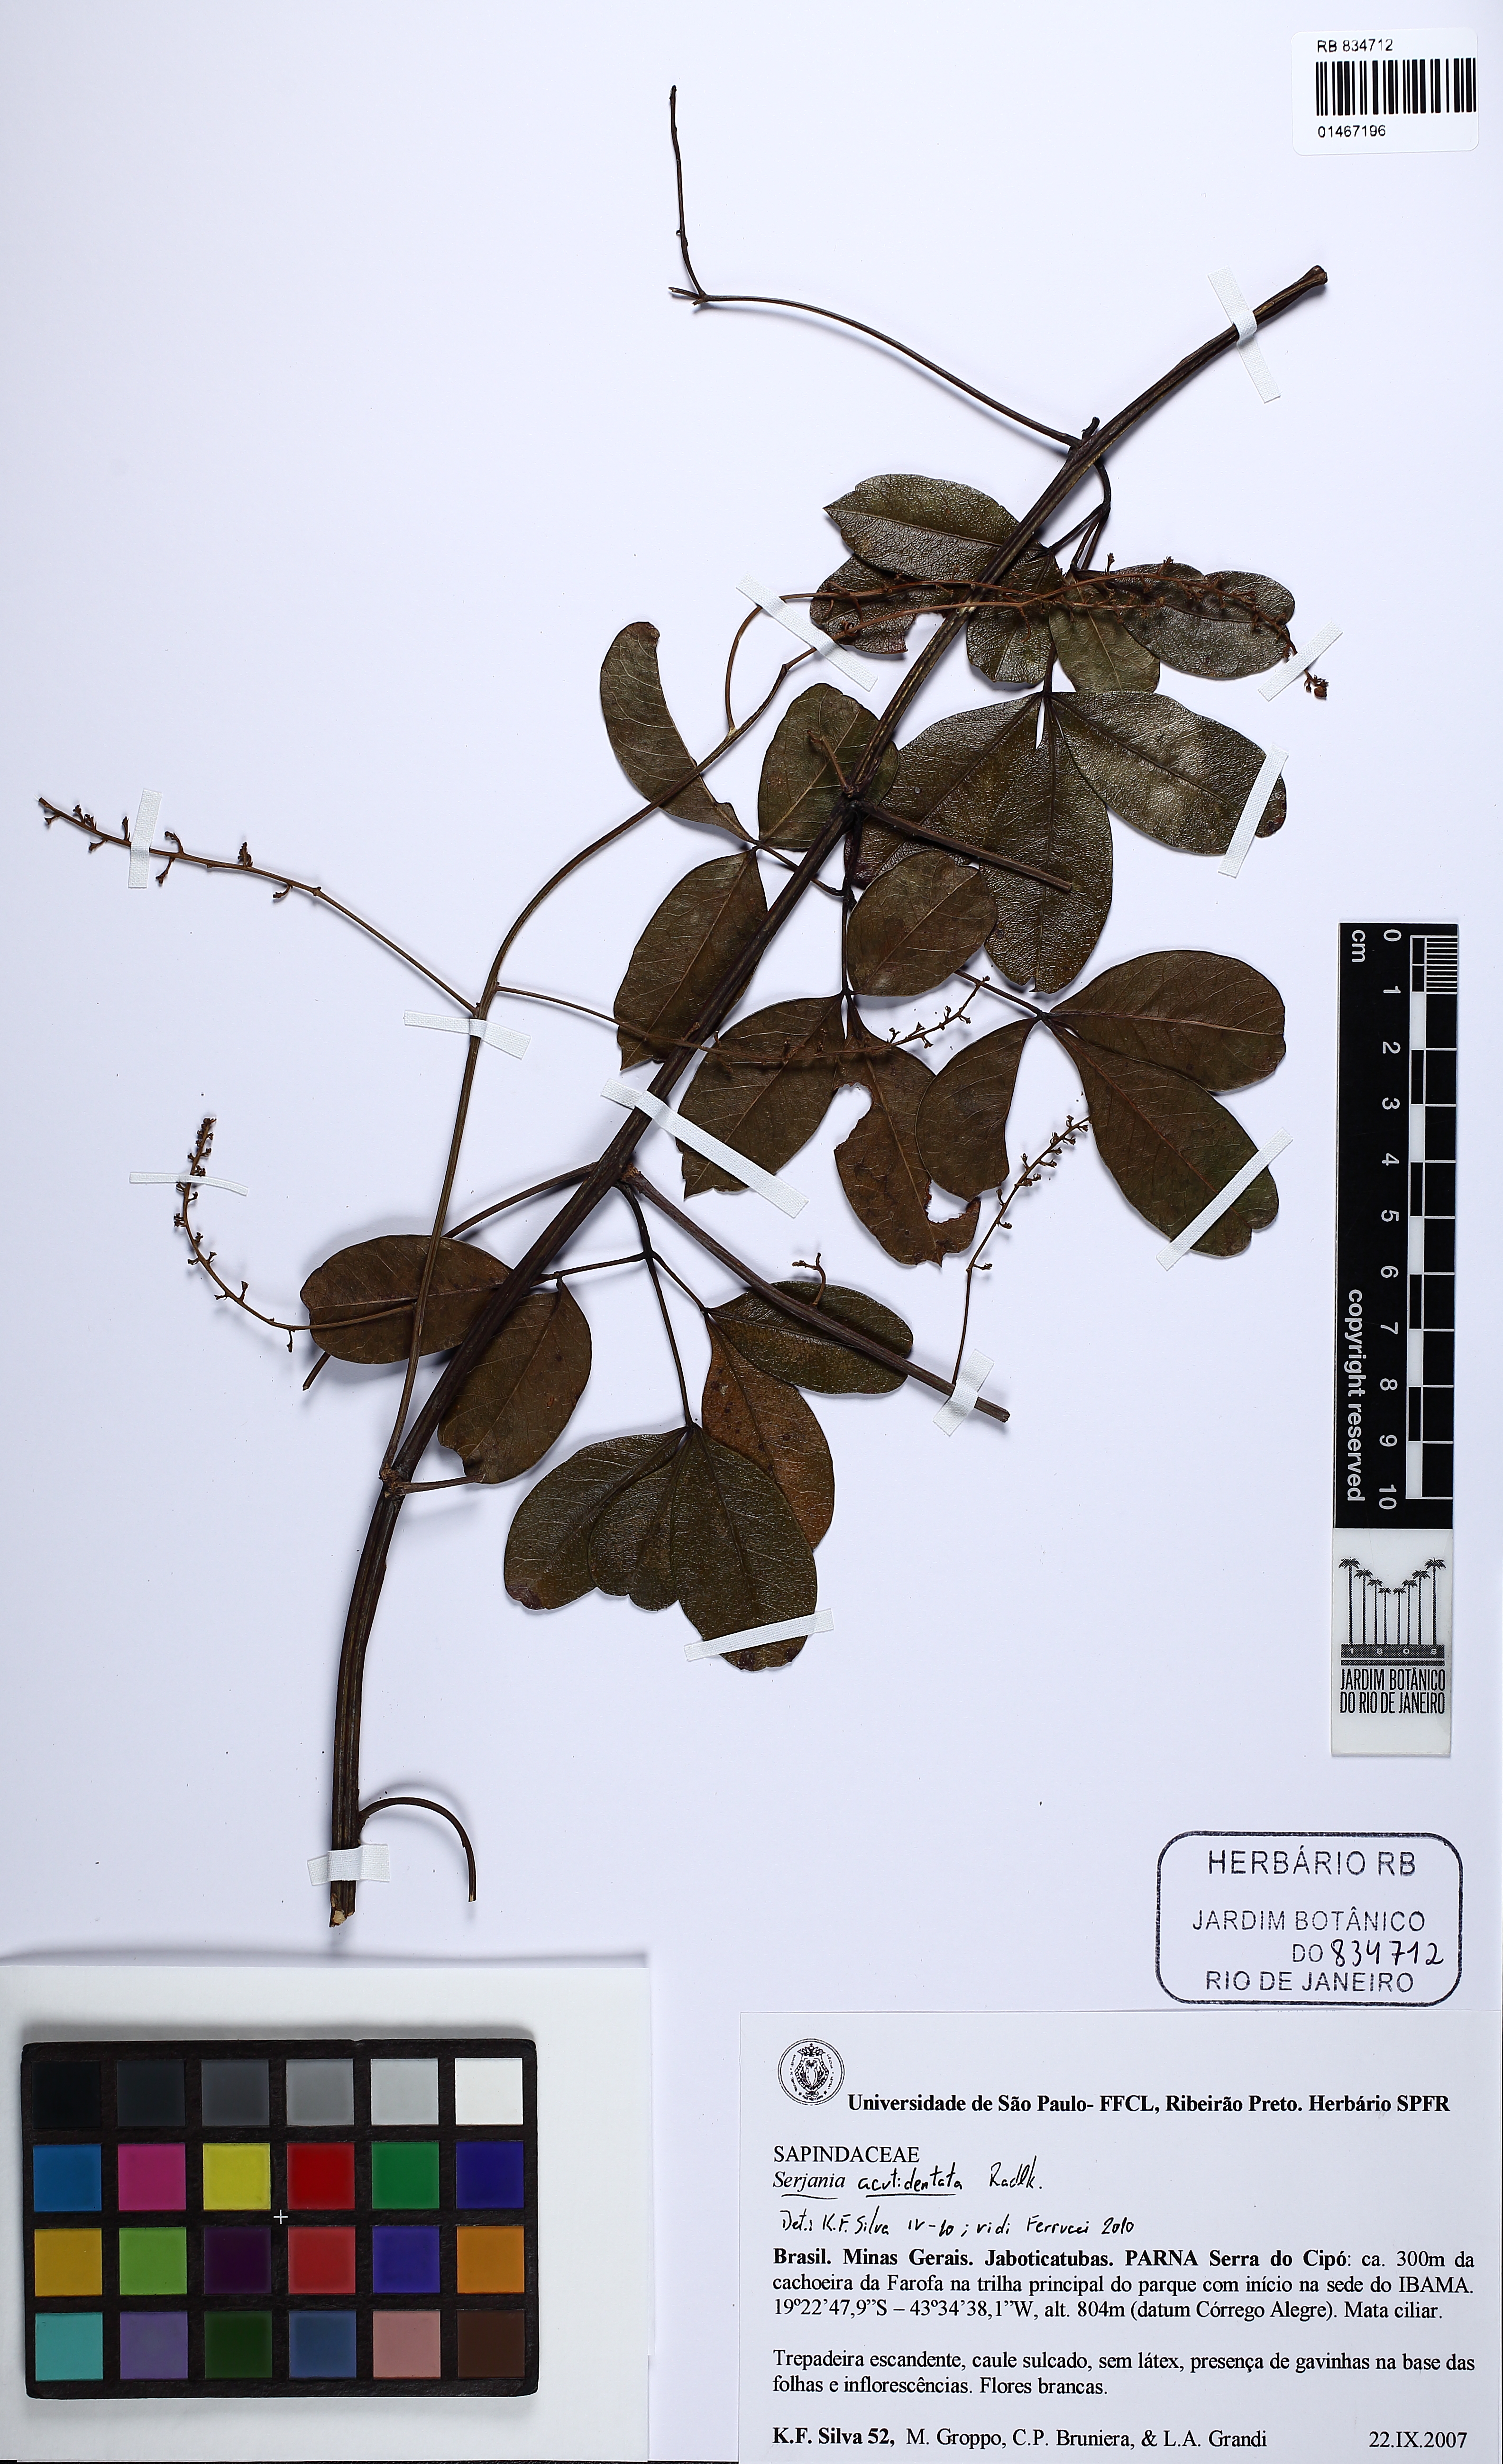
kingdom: Plantae
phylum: Tracheophyta
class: Magnoliopsida
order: Sapindales
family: Sapindaceae
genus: Serjania
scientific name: Serjania acutidentata
